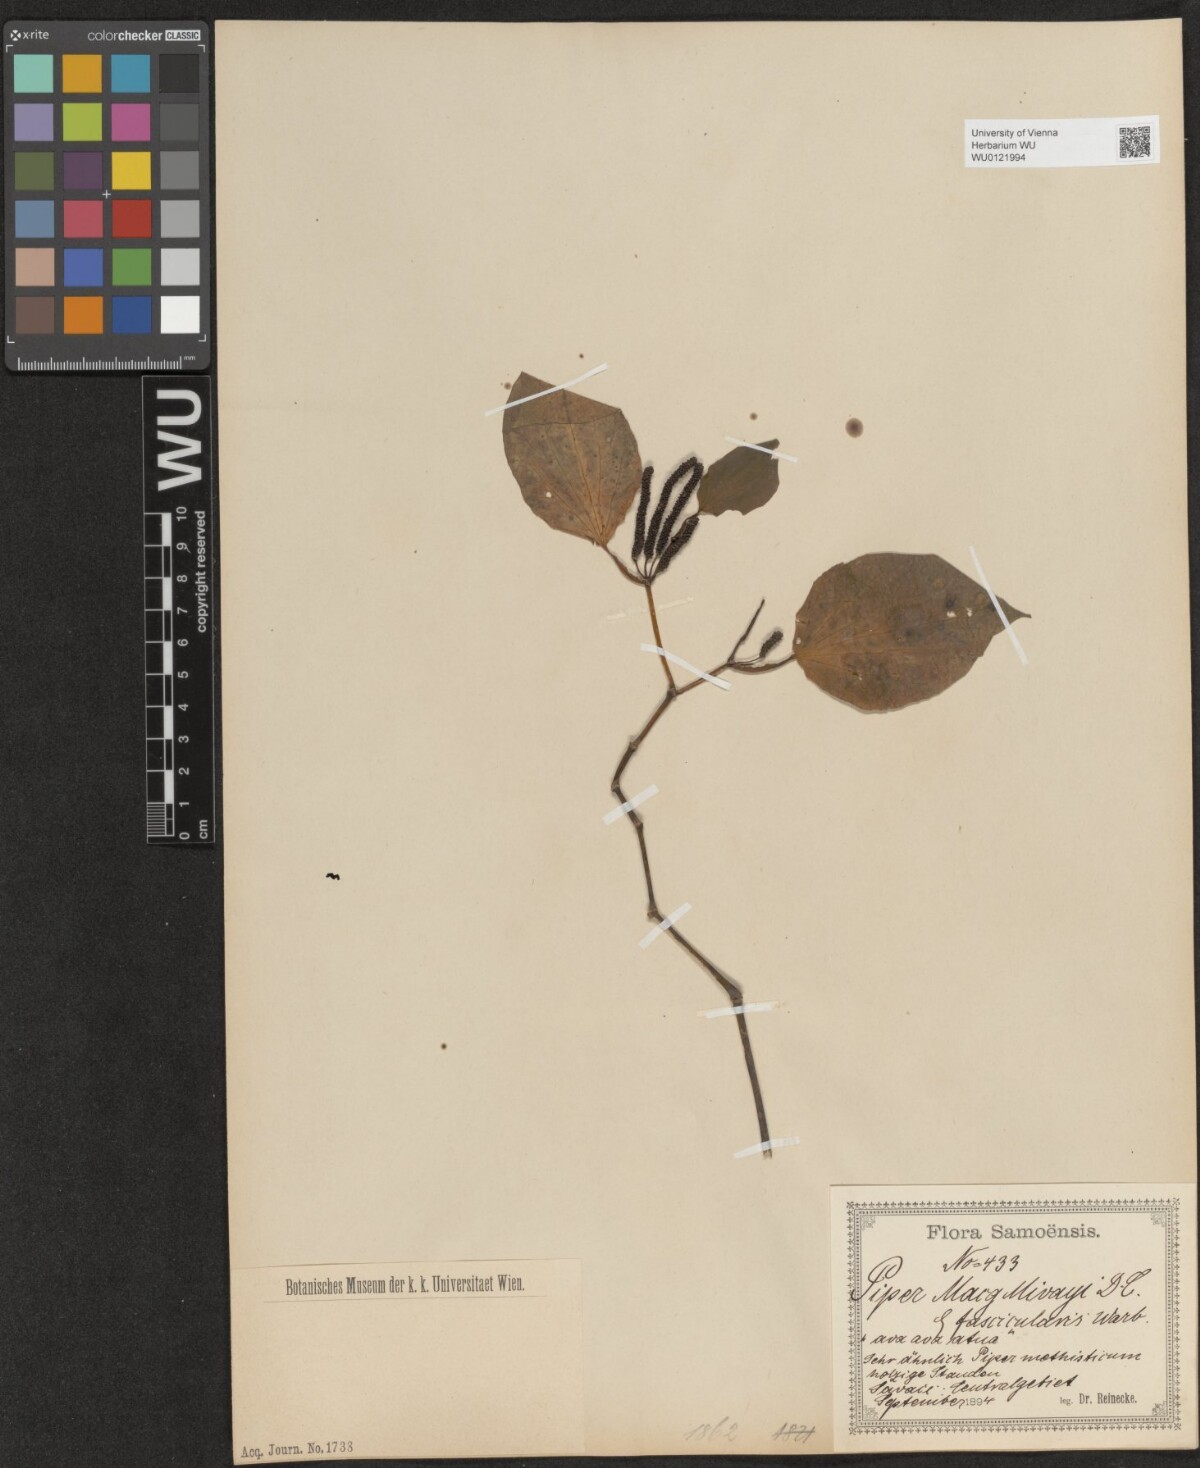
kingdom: Plantae
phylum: Tracheophyta
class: Magnoliopsida
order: Piperales
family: Piperaceae
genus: Macropiper
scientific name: Macropiper puberulum
